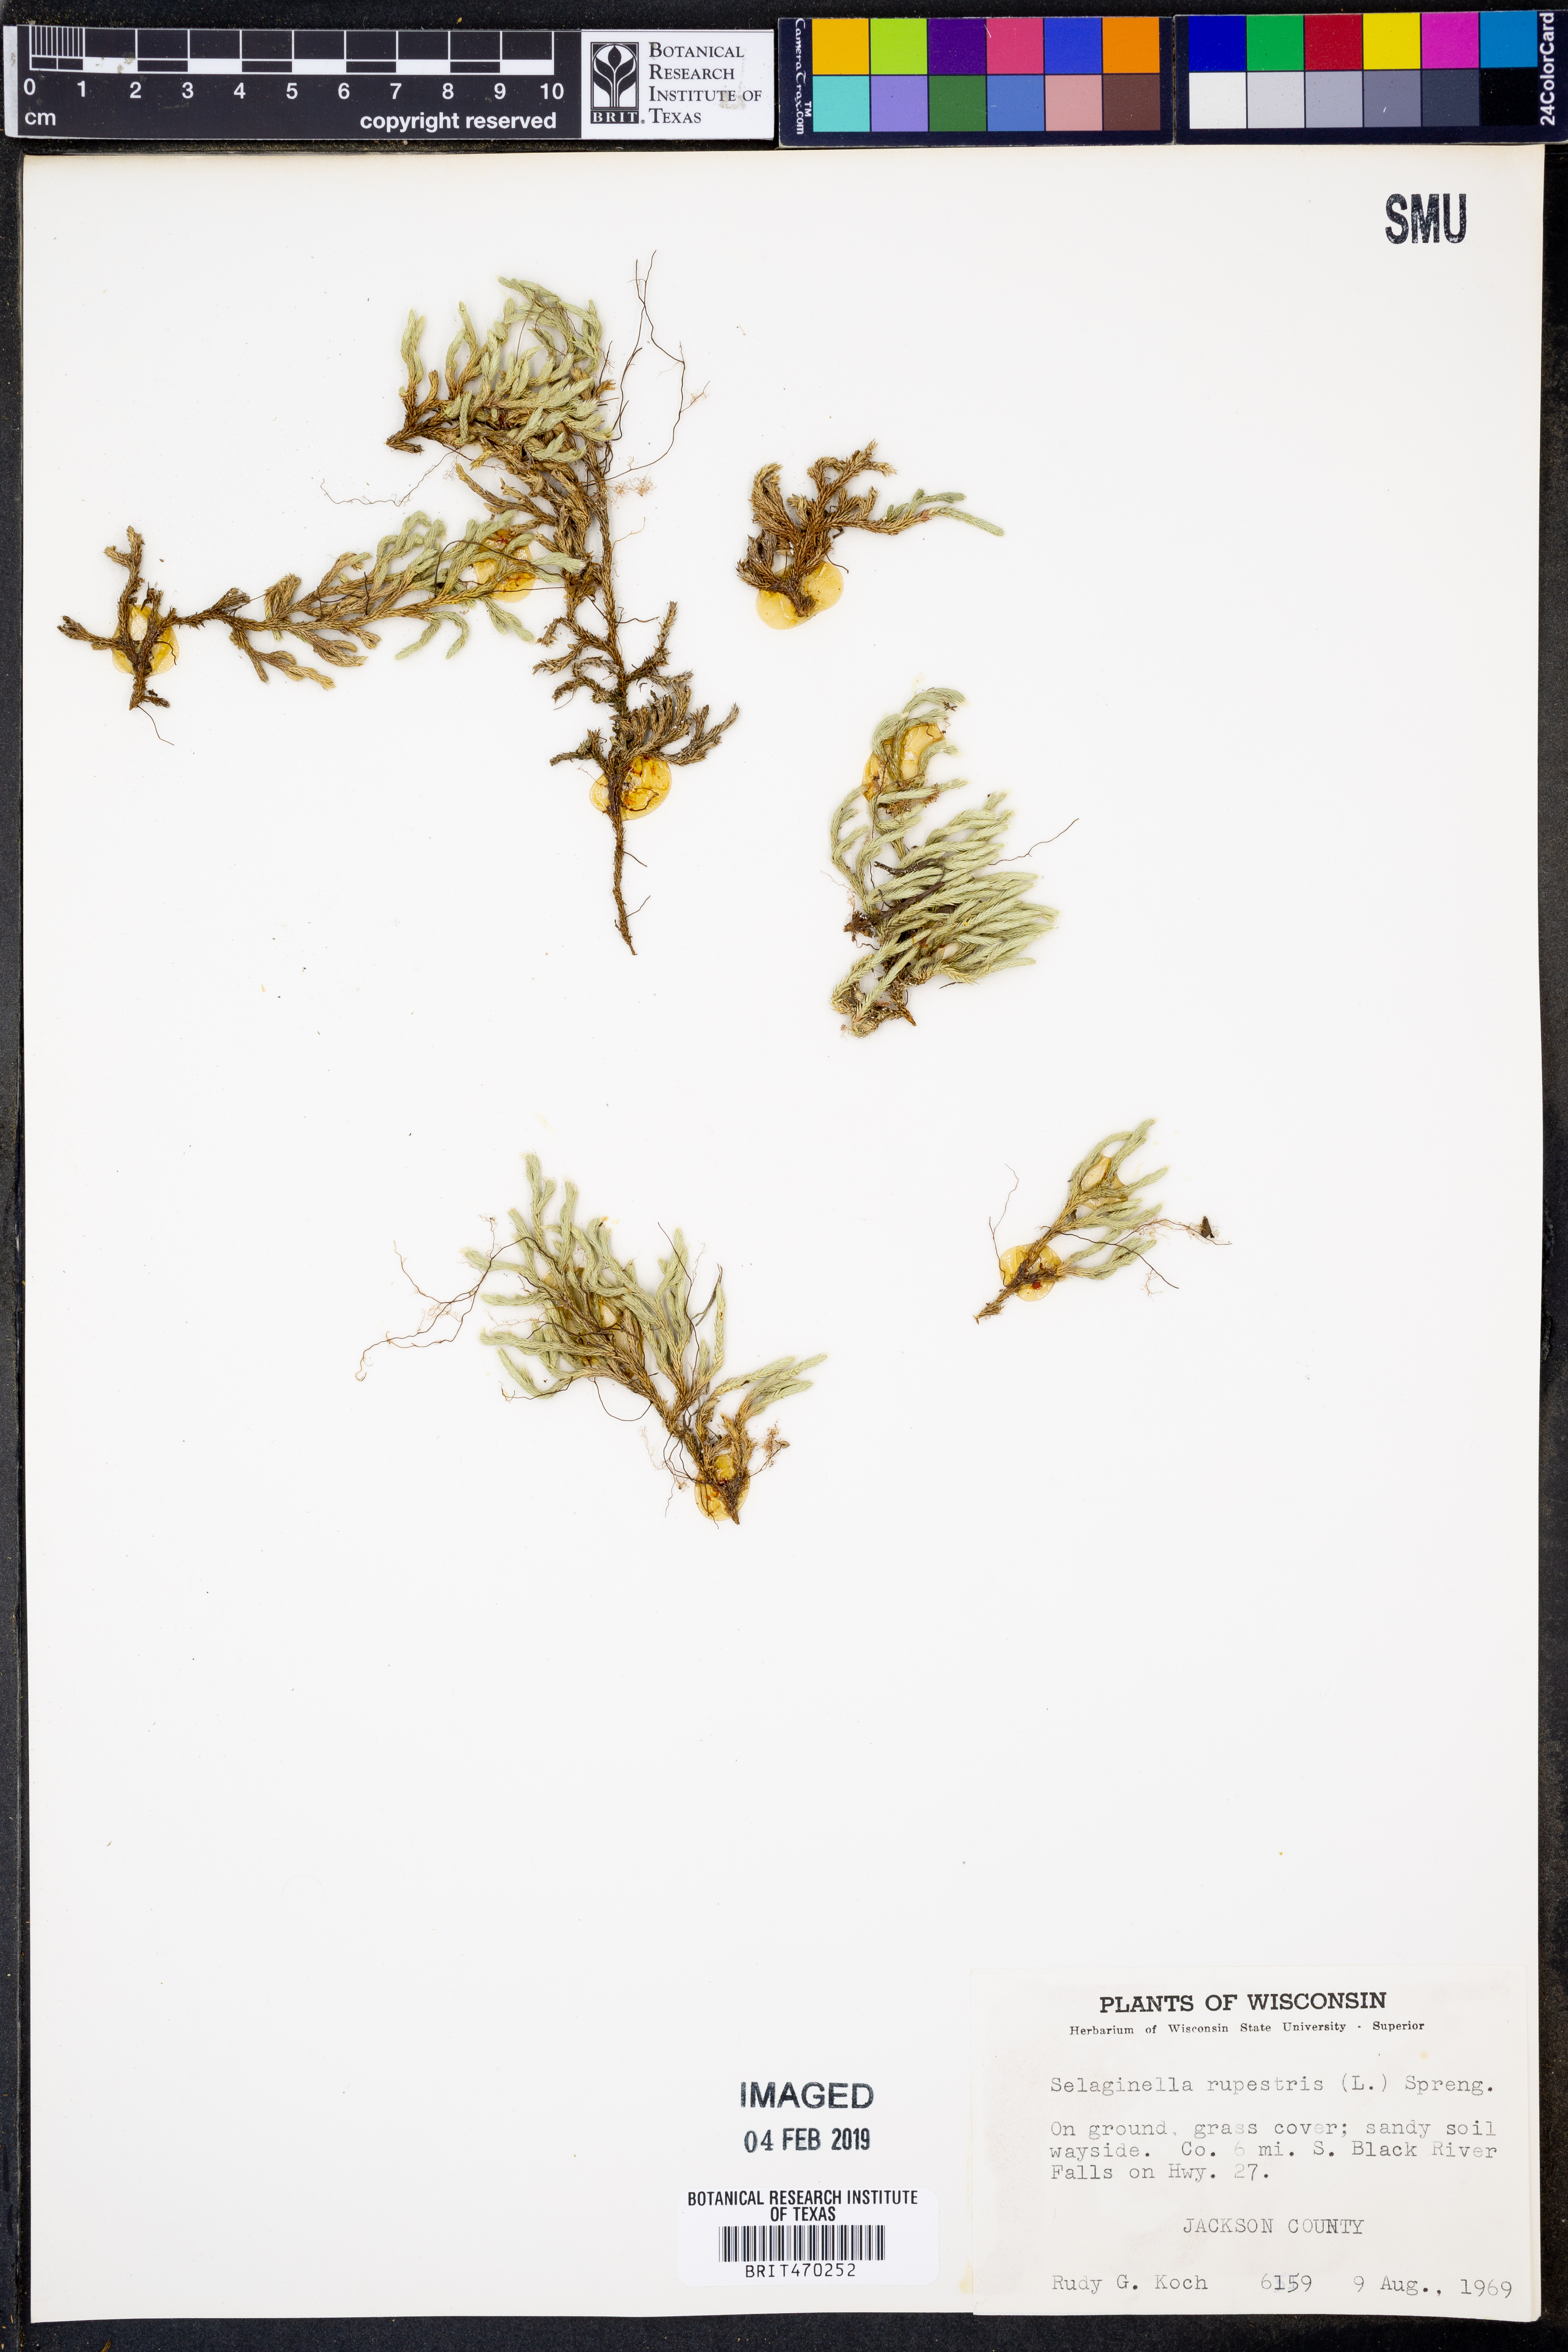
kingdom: Plantae
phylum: Tracheophyta
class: Lycopodiopsida
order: Selaginellales
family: Selaginellaceae
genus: Selaginella
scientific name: Selaginella rupestris
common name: Dwarf spikemoss
